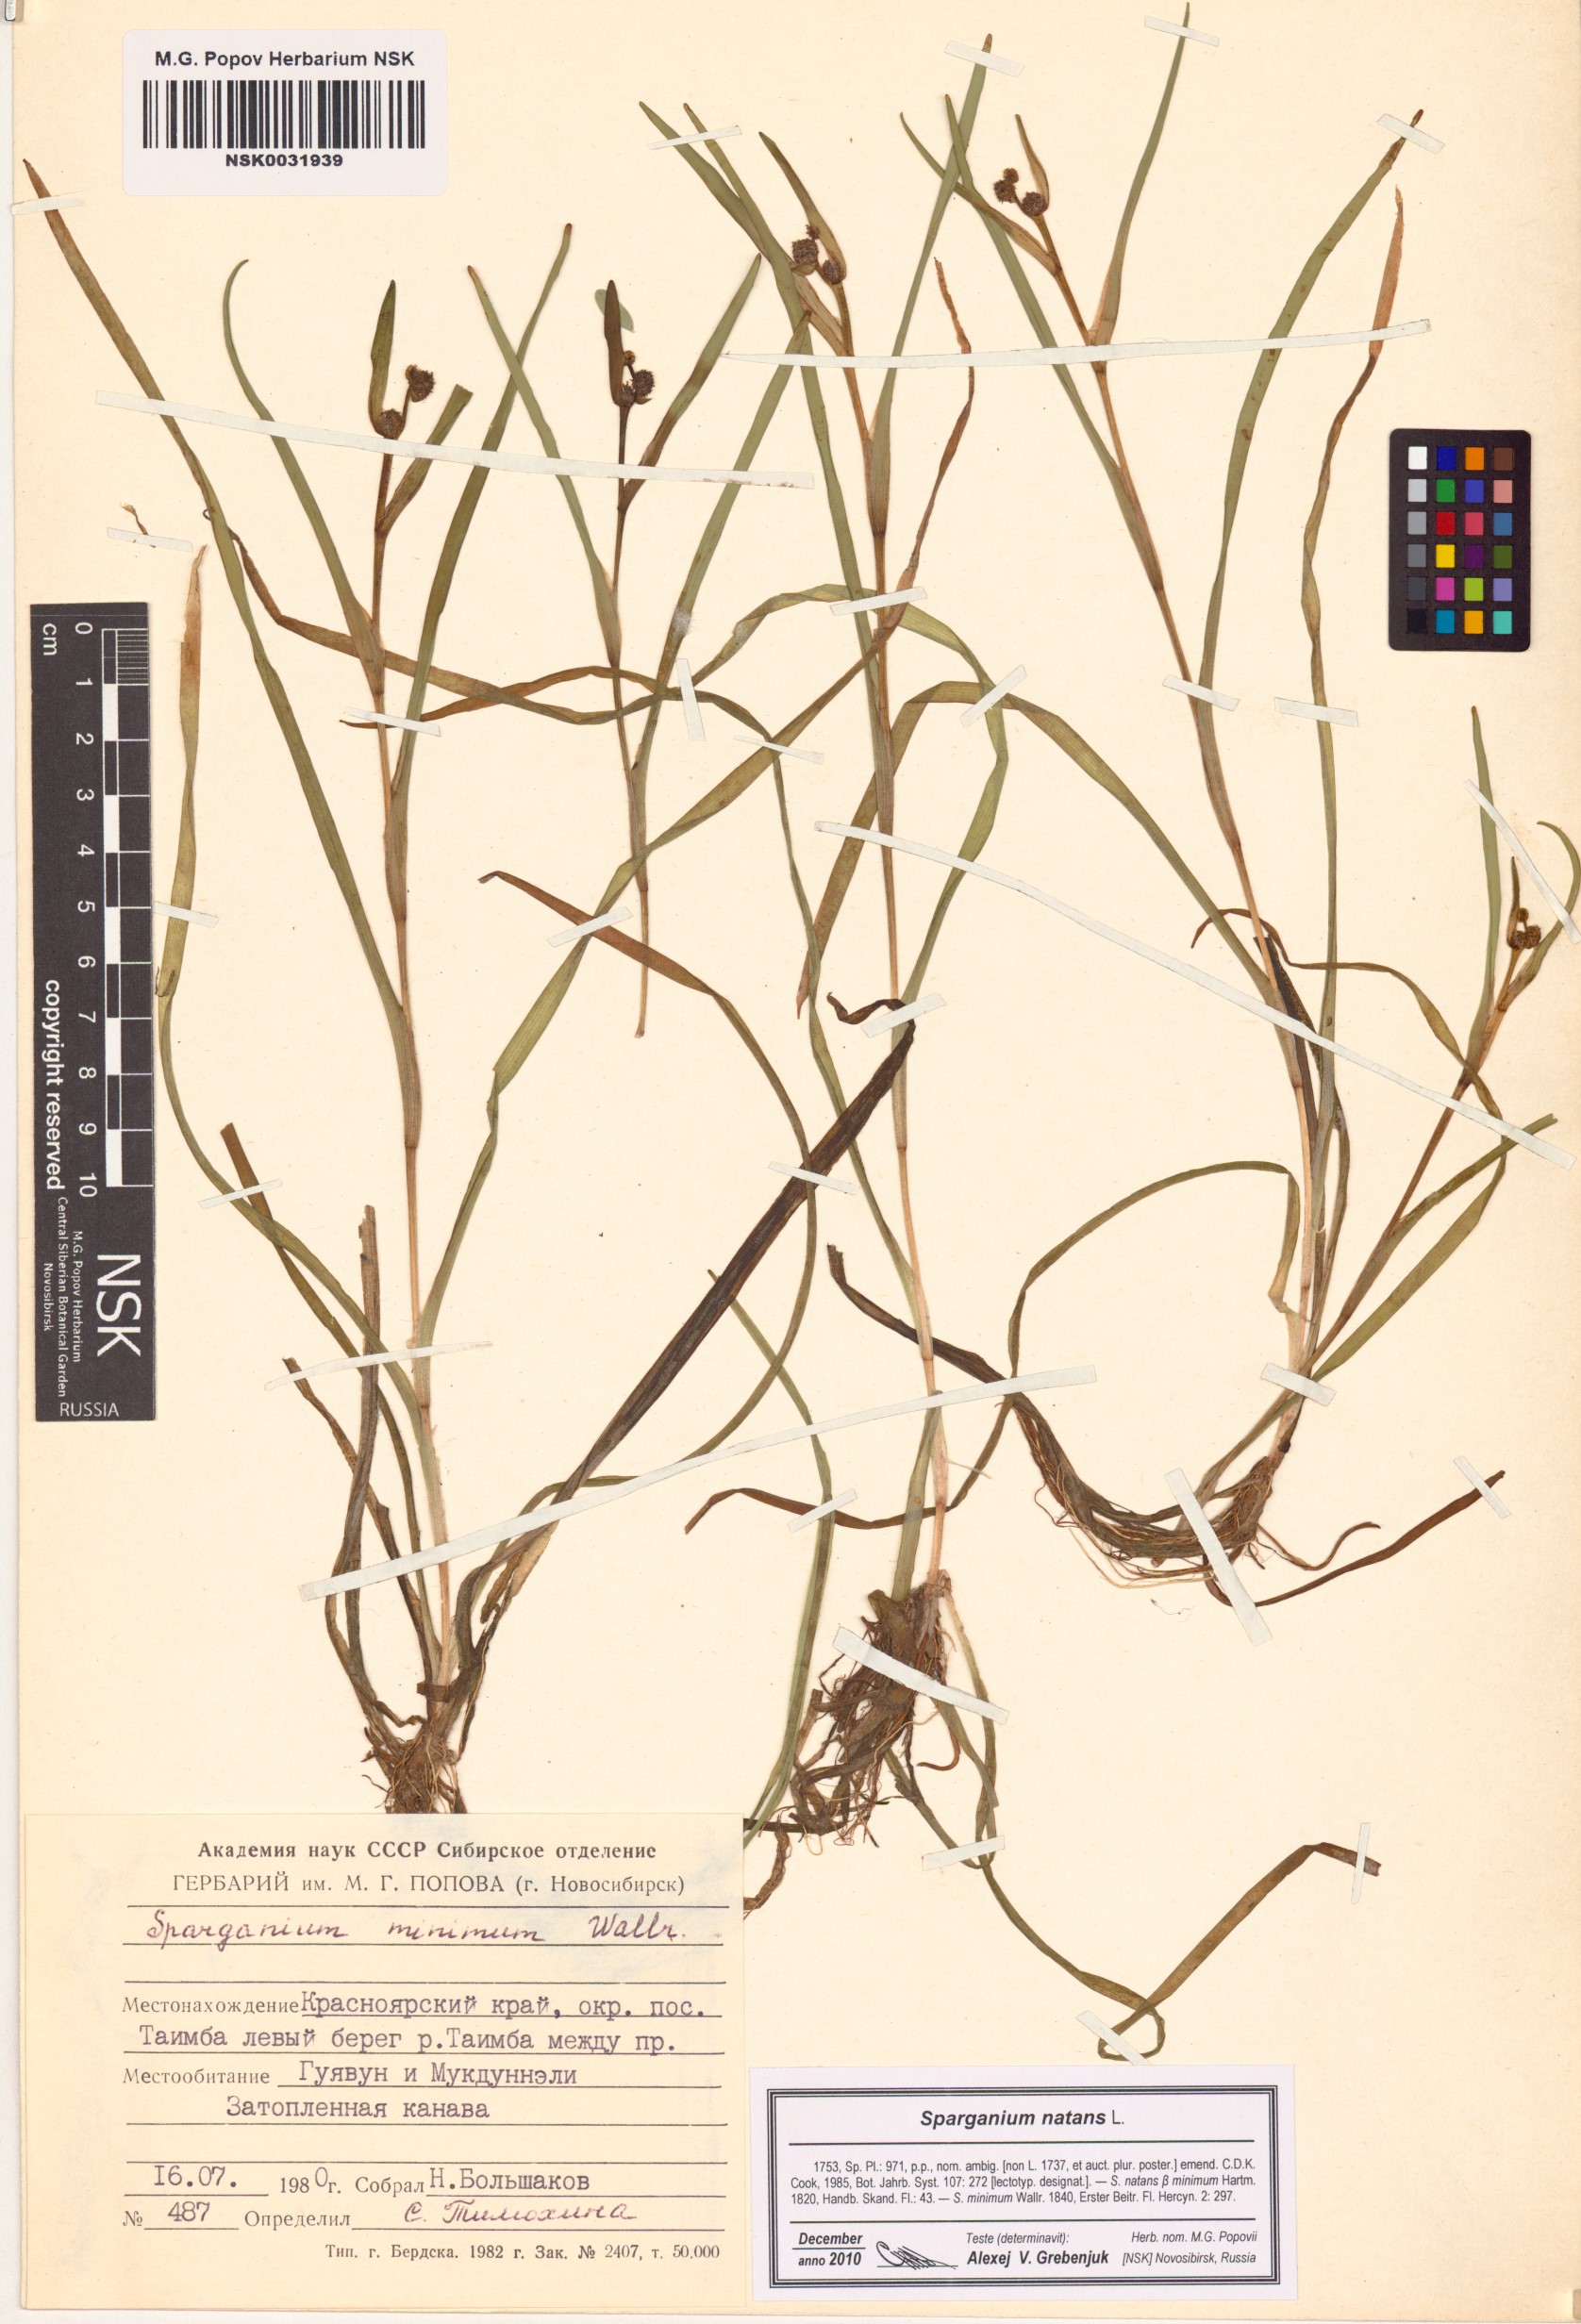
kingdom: Plantae
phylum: Tracheophyta
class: Liliopsida
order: Poales
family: Typhaceae
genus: Sparganium
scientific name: Sparganium natans
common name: Least bur-reed
